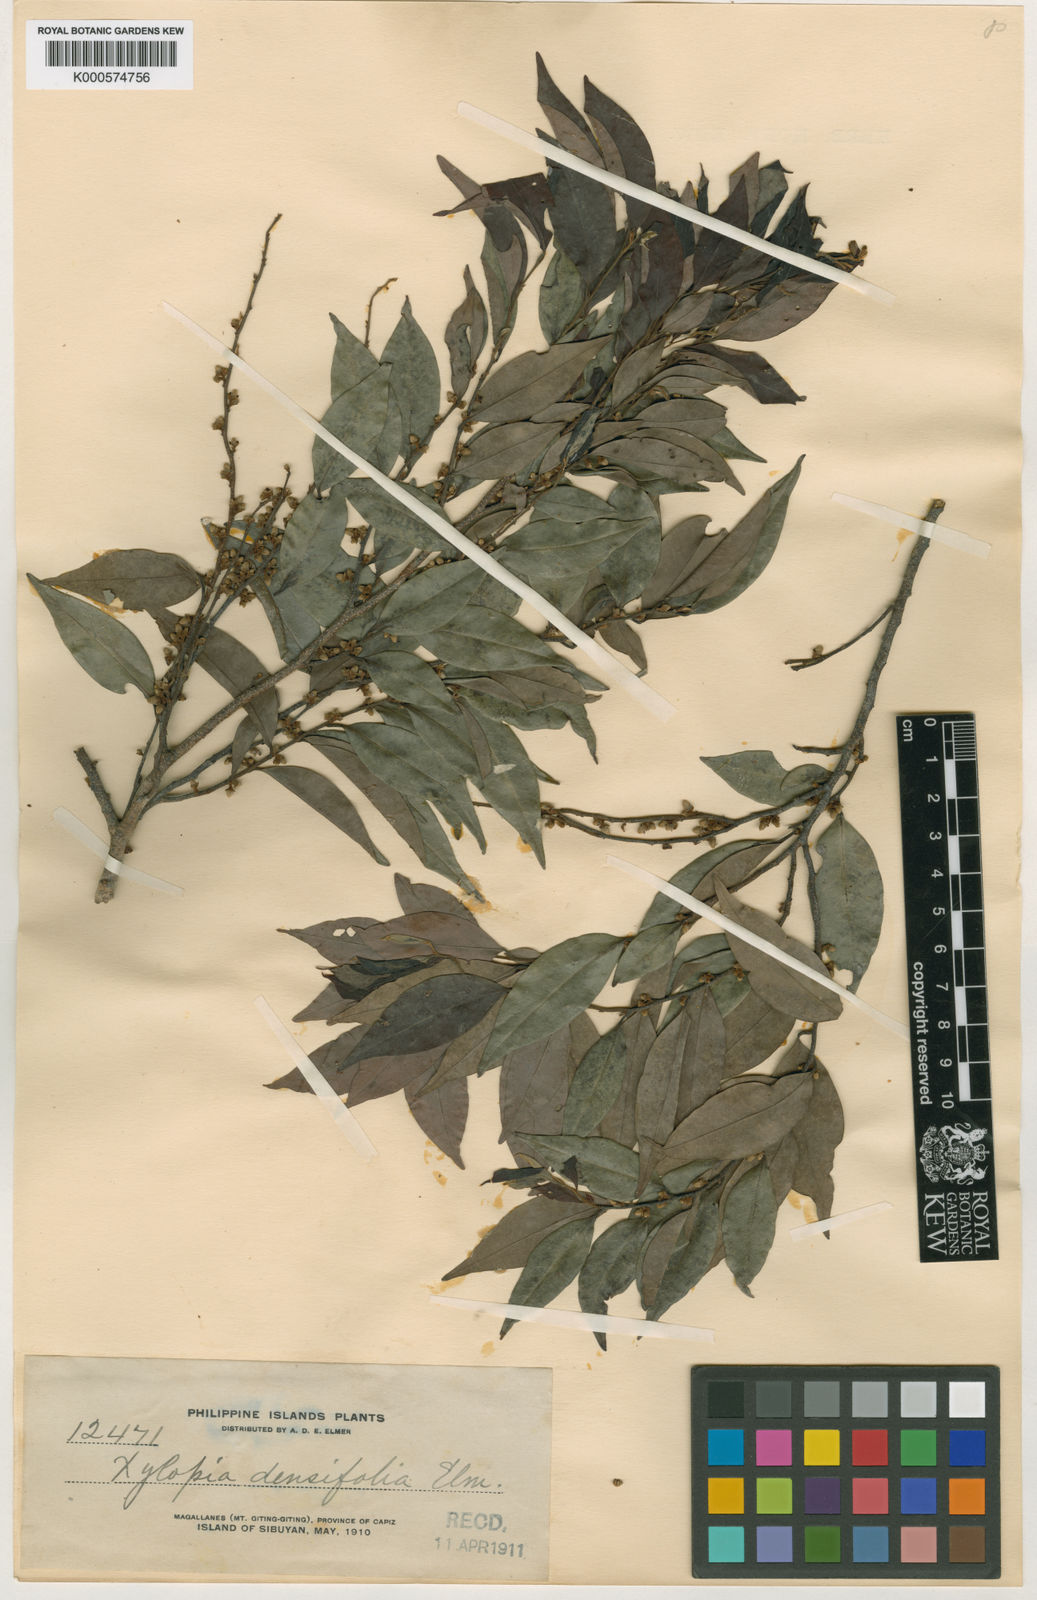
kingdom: Plantae
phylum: Tracheophyta
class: Magnoliopsida
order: Magnoliales
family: Annonaceae
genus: Xylopia
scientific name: Xylopia densifolia
